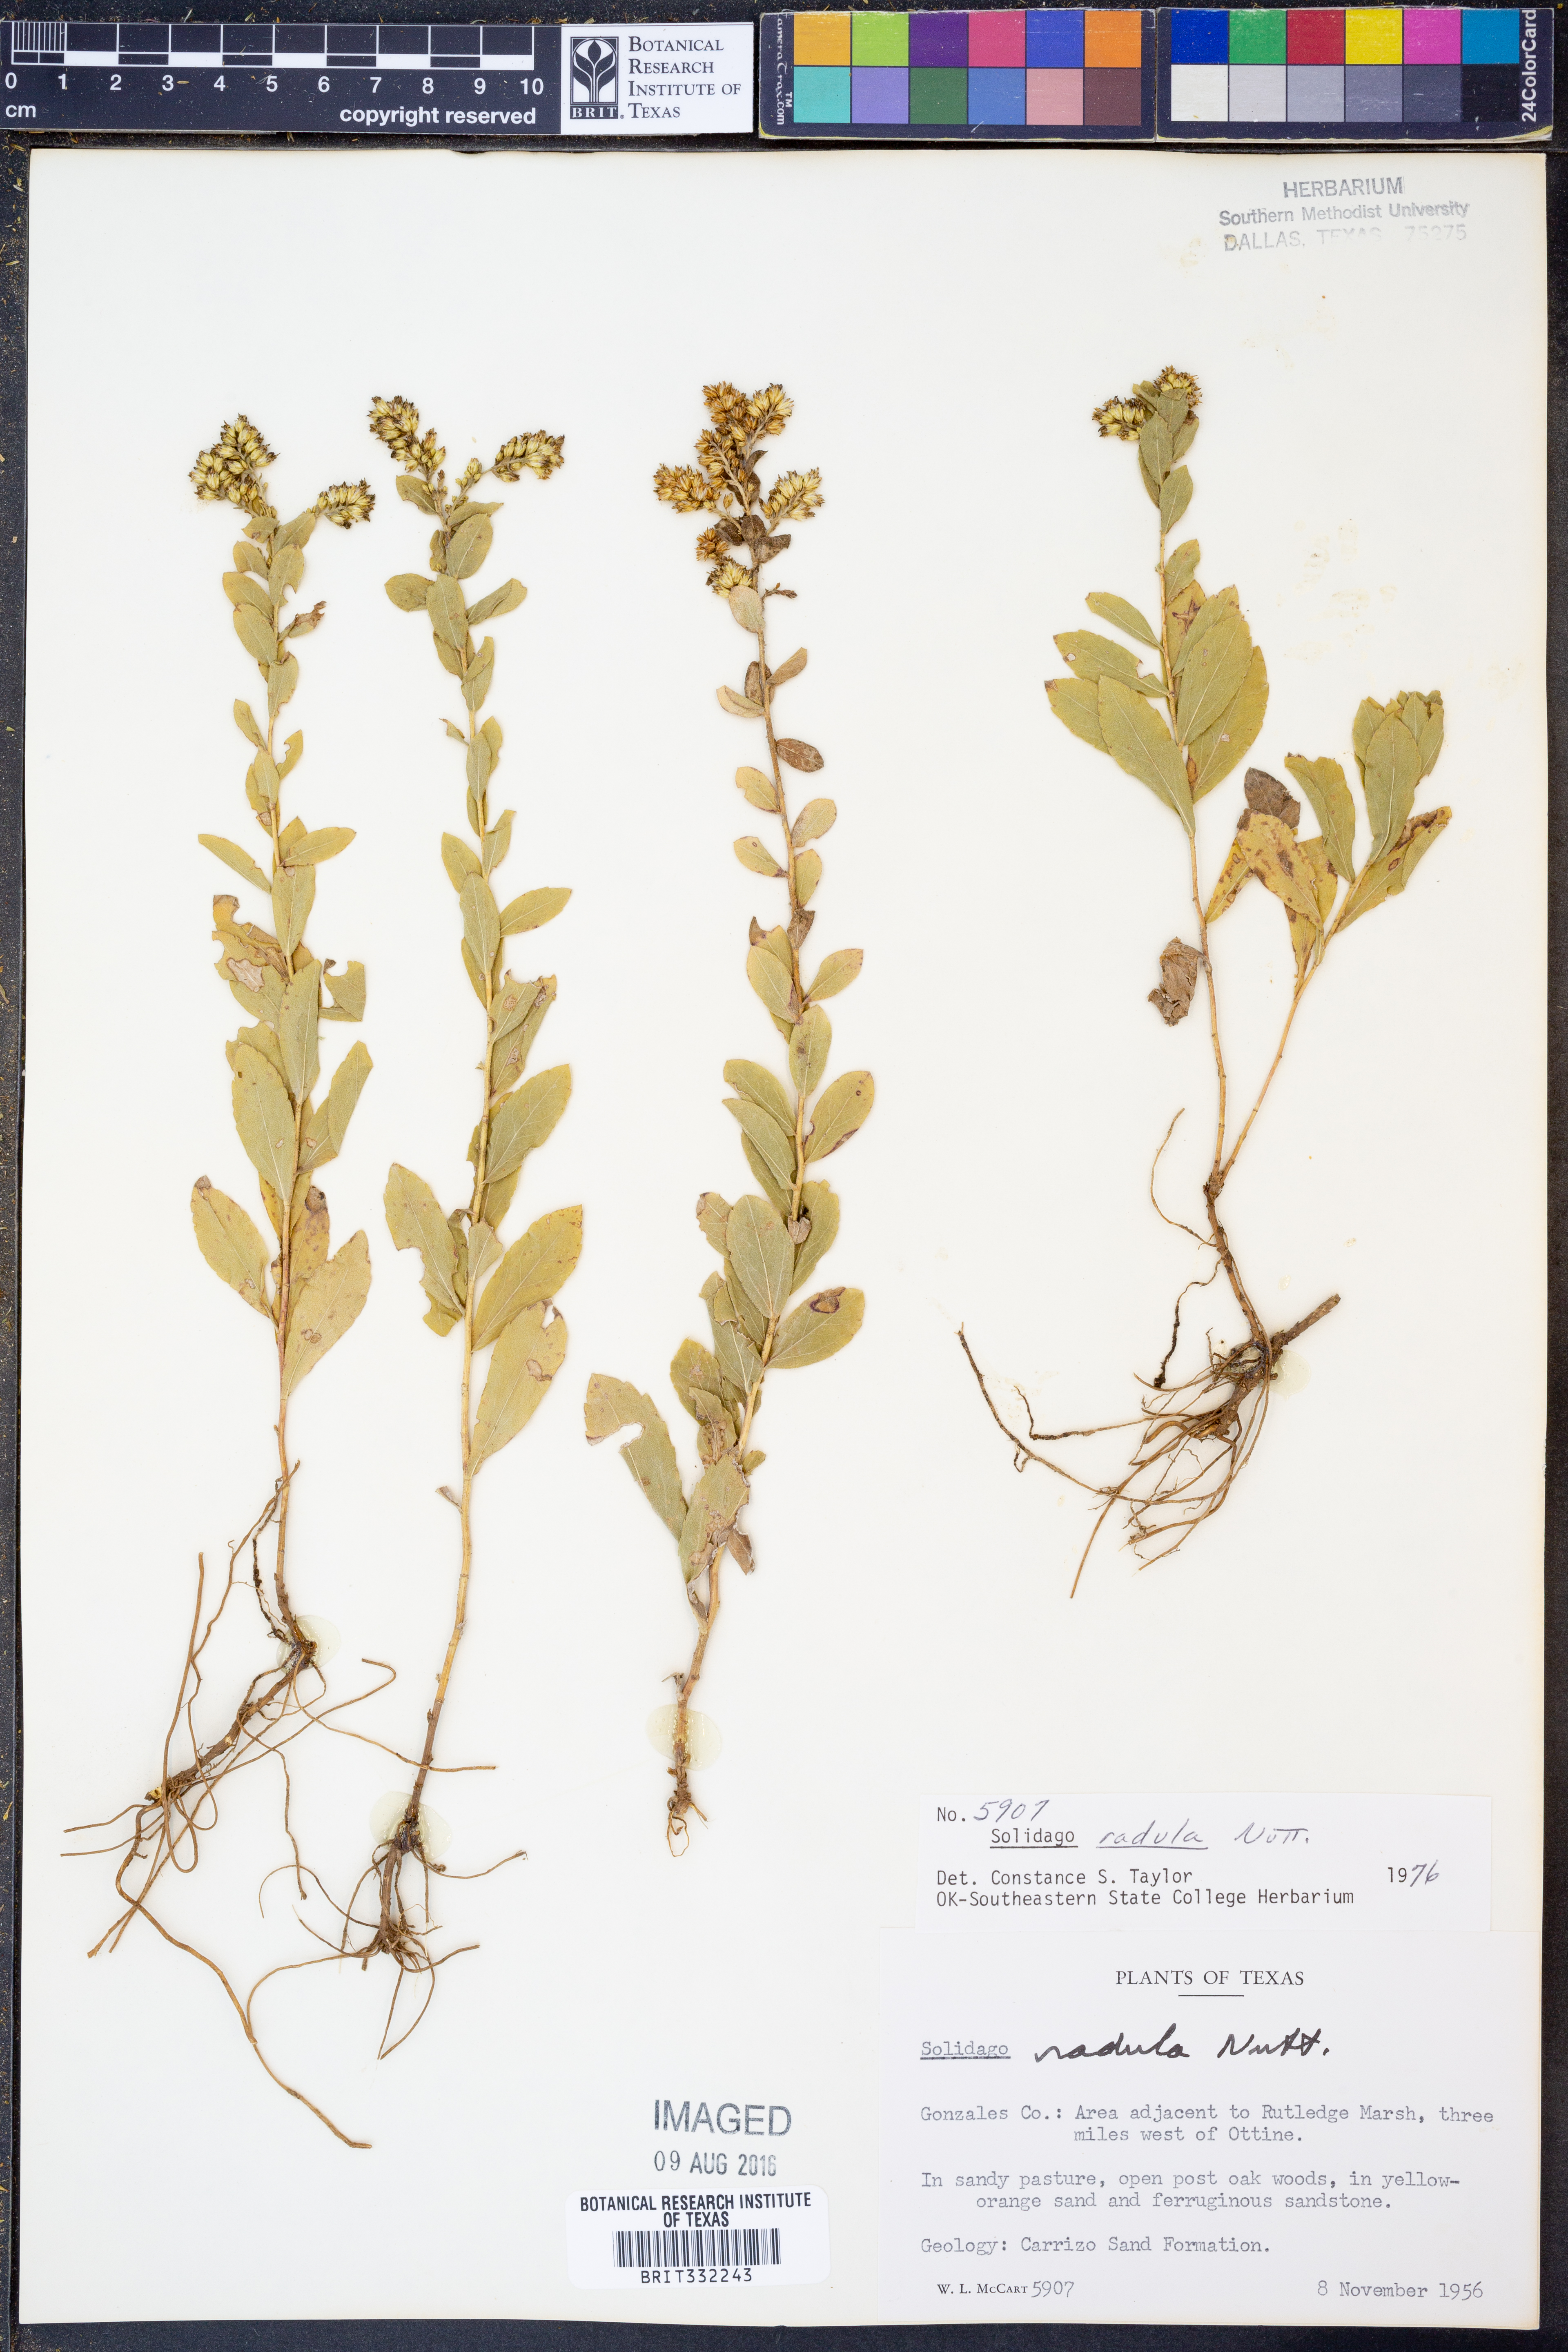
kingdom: Plantae
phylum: Tracheophyta
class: Magnoliopsida
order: Asterales
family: Asteraceae
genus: Solidago
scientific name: Solidago radula
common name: Western rough goldenrod
